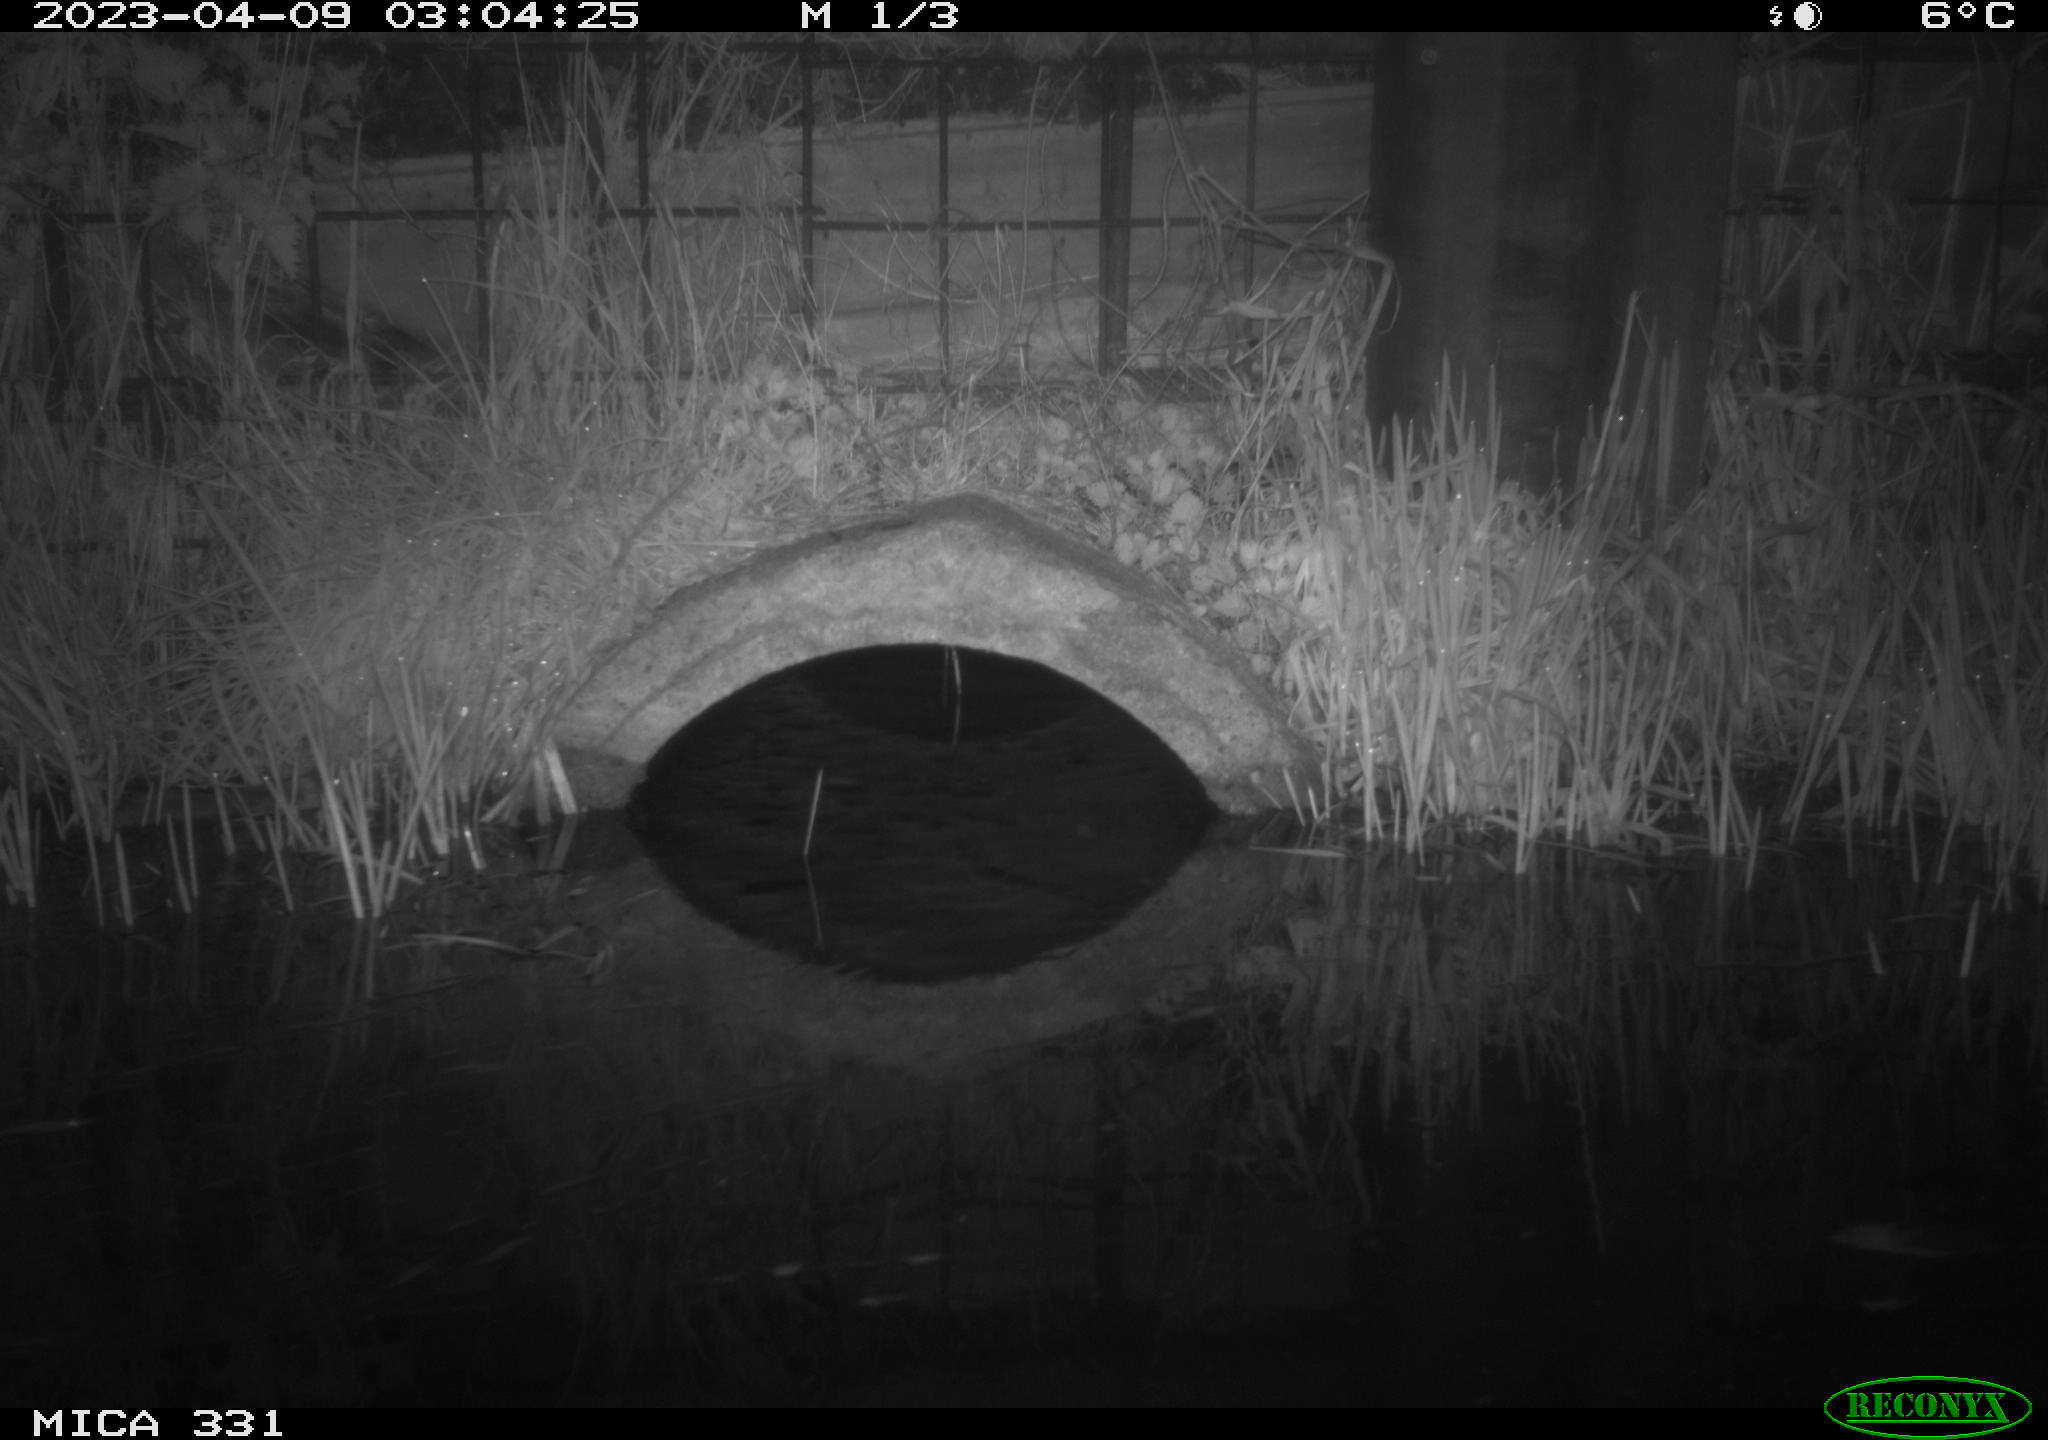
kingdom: Animalia
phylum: Chordata
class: Mammalia
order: Rodentia
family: Muridae
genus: Rattus
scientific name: Rattus norvegicus
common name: Brown rat
